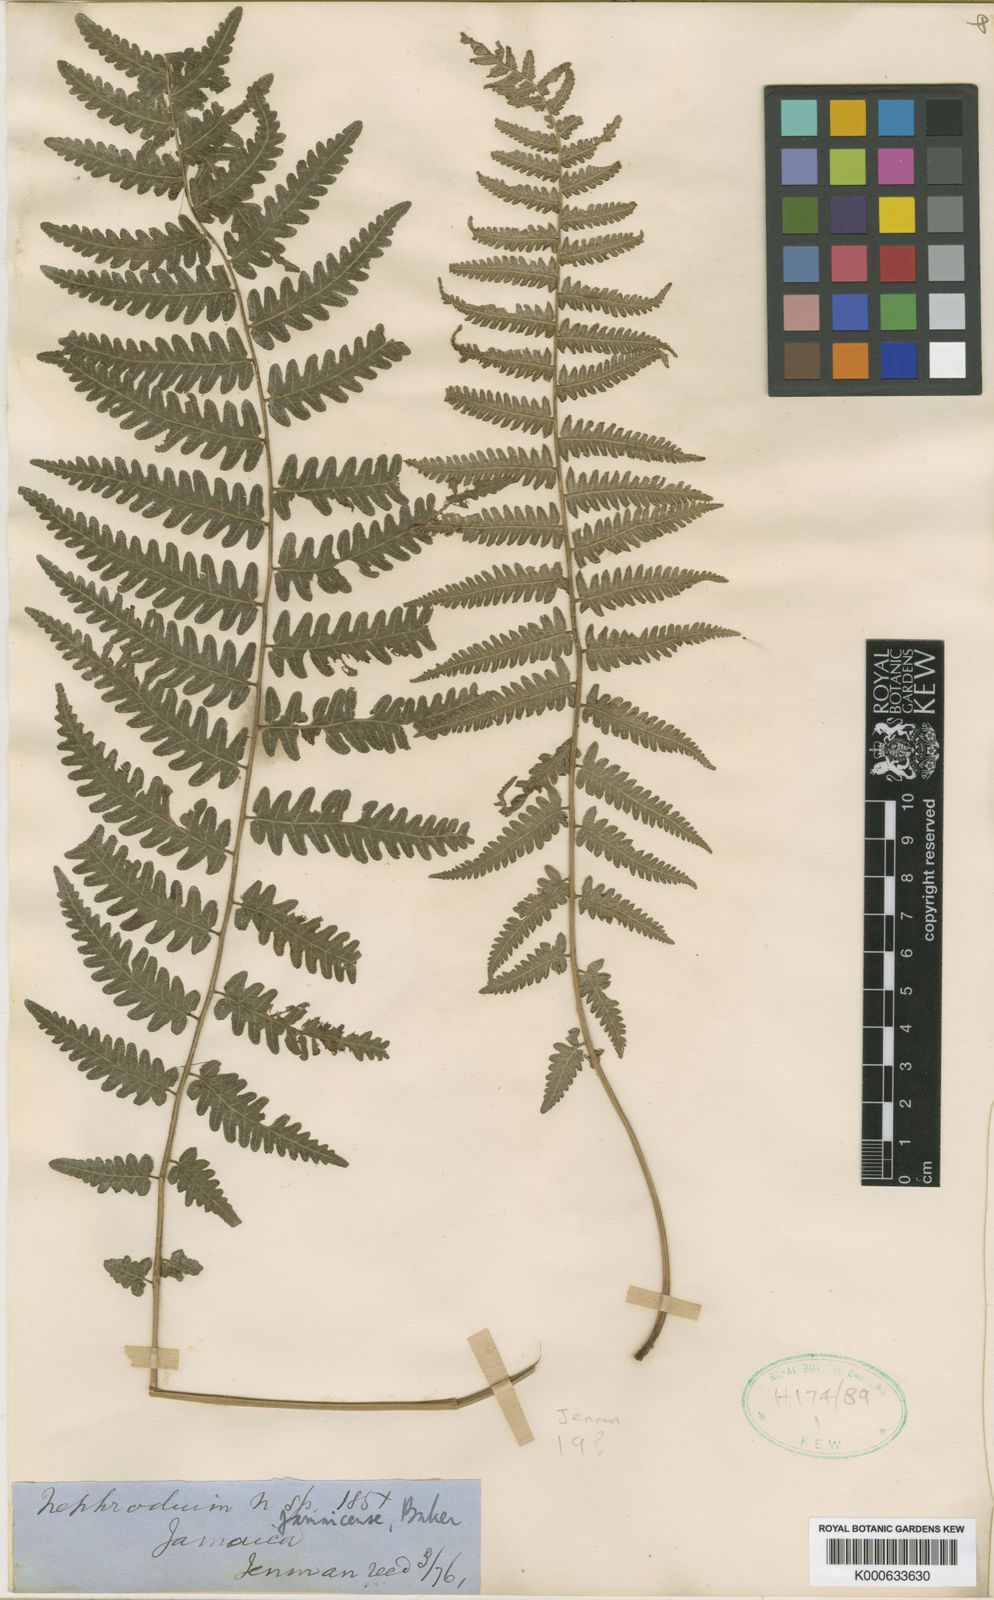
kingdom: Plantae
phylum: Tracheophyta
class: Polypodiopsida
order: Polypodiales
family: Thelypteridaceae
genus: Goniopteris
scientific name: Goniopteris
